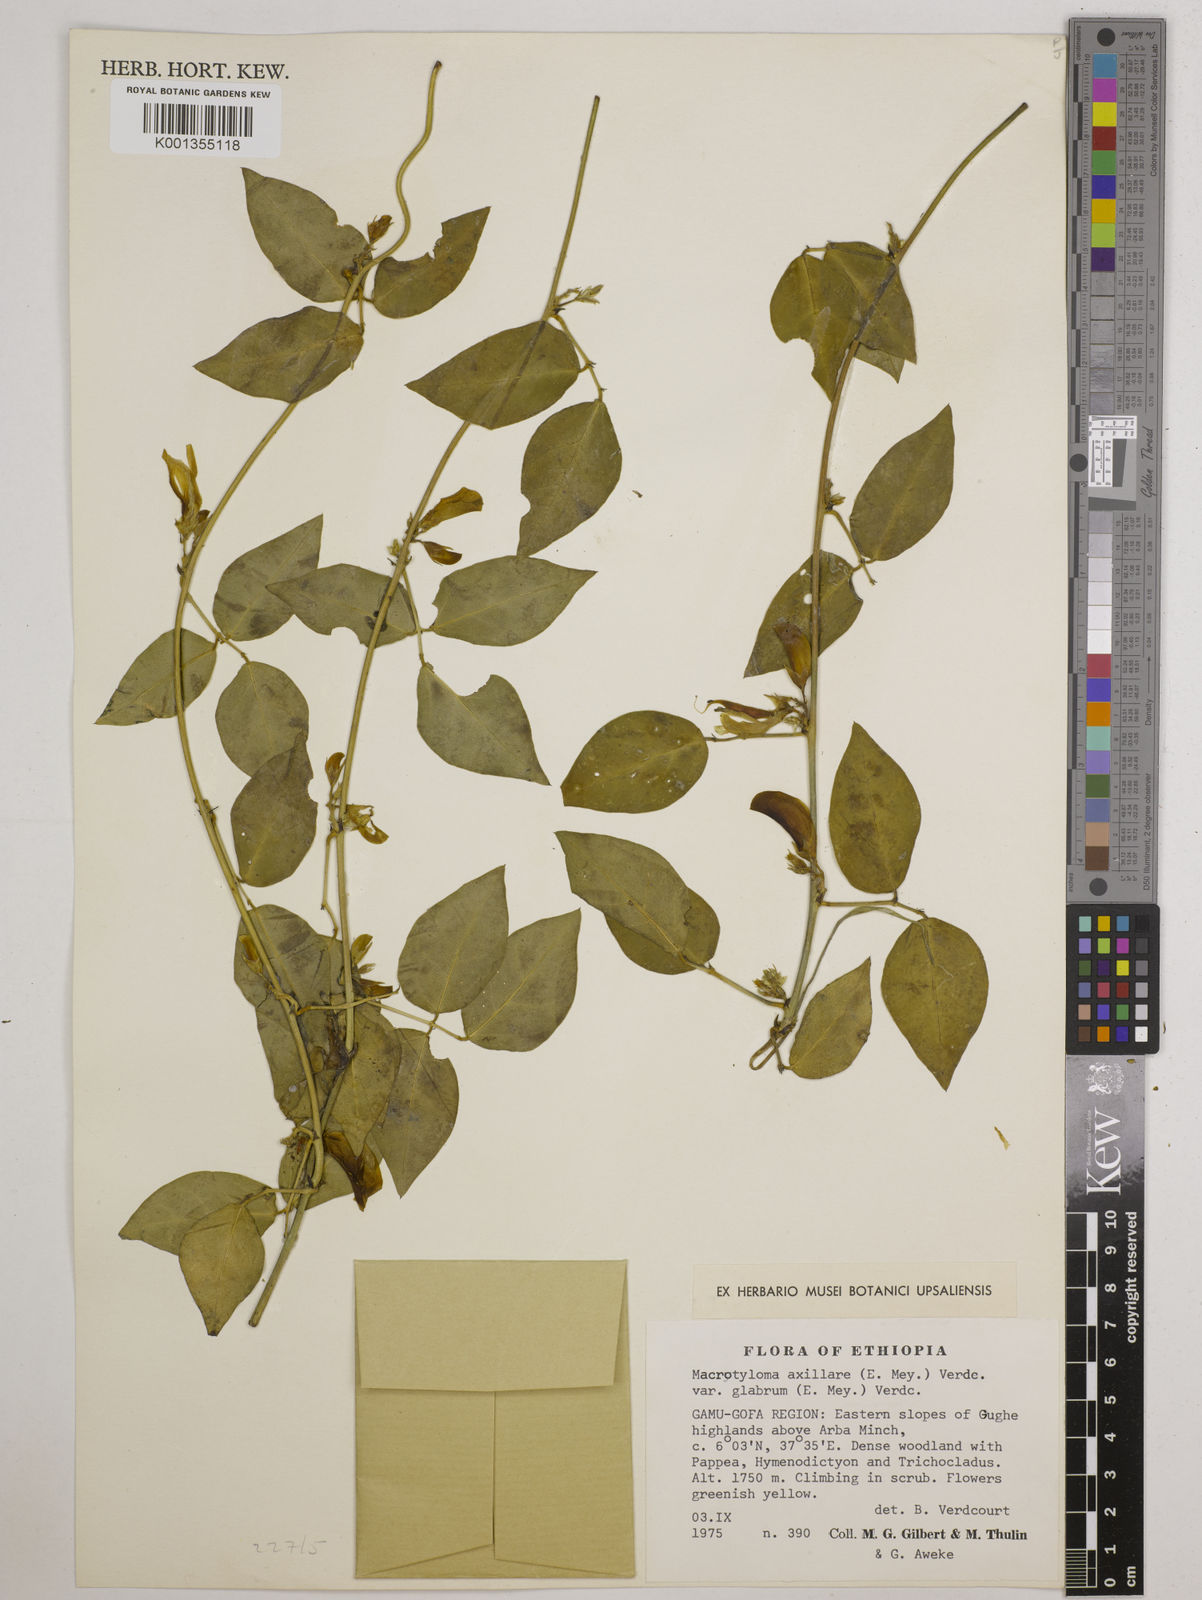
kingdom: Plantae
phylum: Tracheophyta
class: Magnoliopsida
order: Fabales
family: Fabaceae
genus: Macrotyloma
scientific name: Macrotyloma
